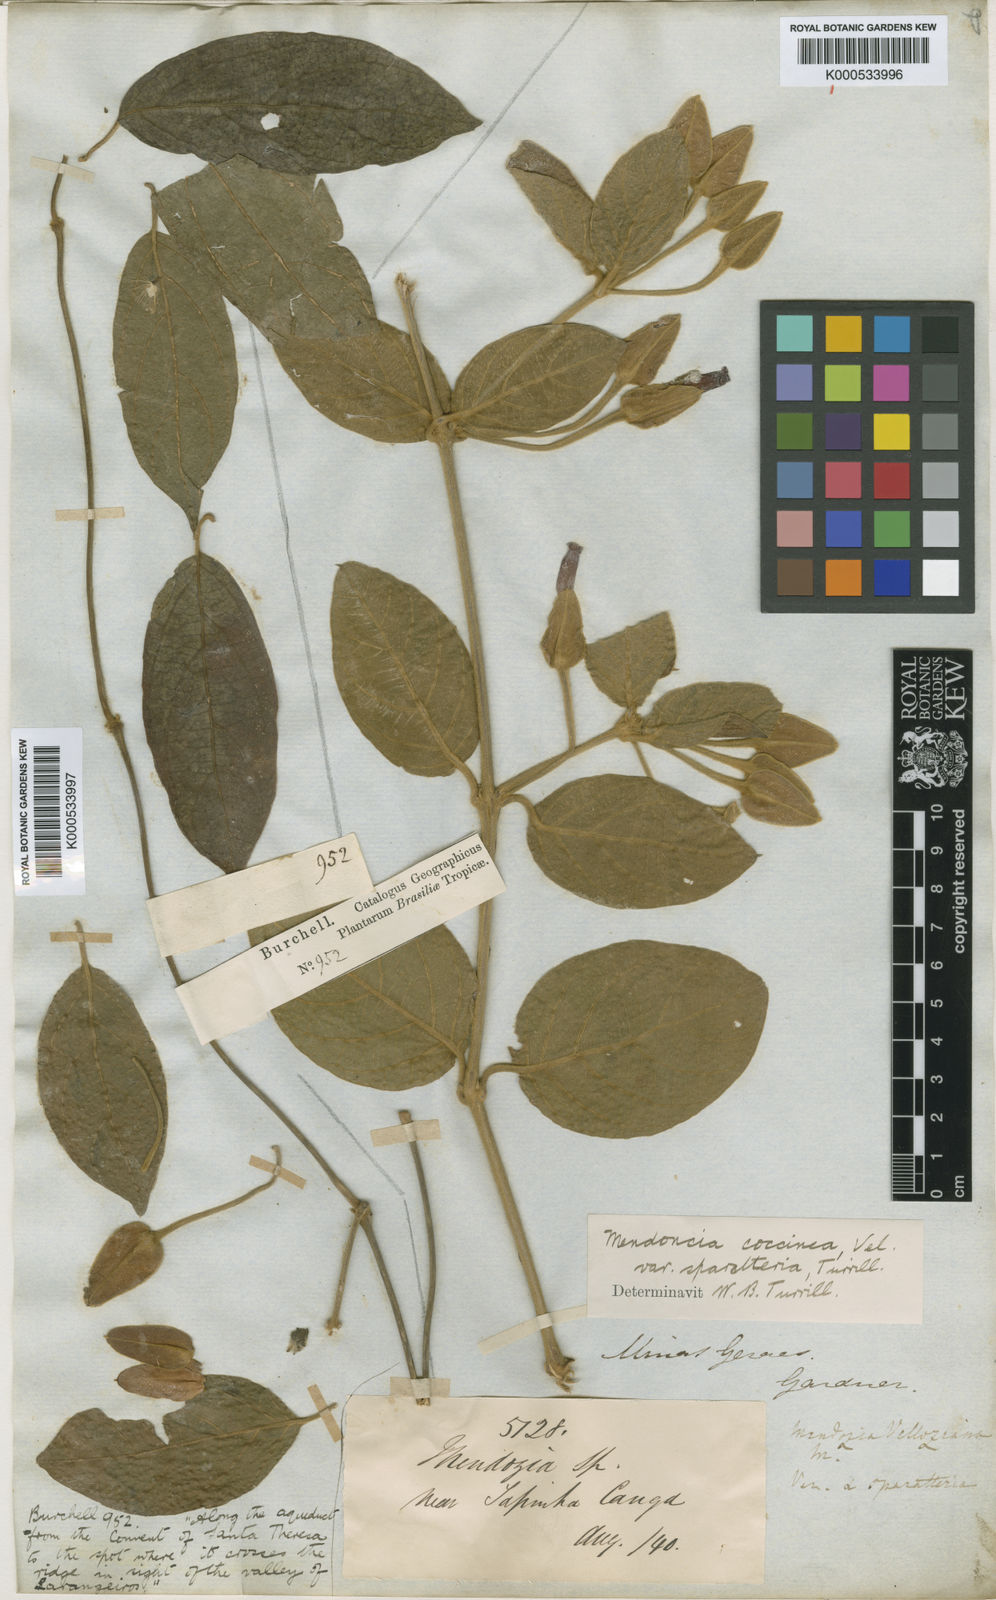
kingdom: Plantae
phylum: Tracheophyta
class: Magnoliopsida
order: Lamiales
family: Acanthaceae
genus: Mendoncia
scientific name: Mendoncia coccinea
